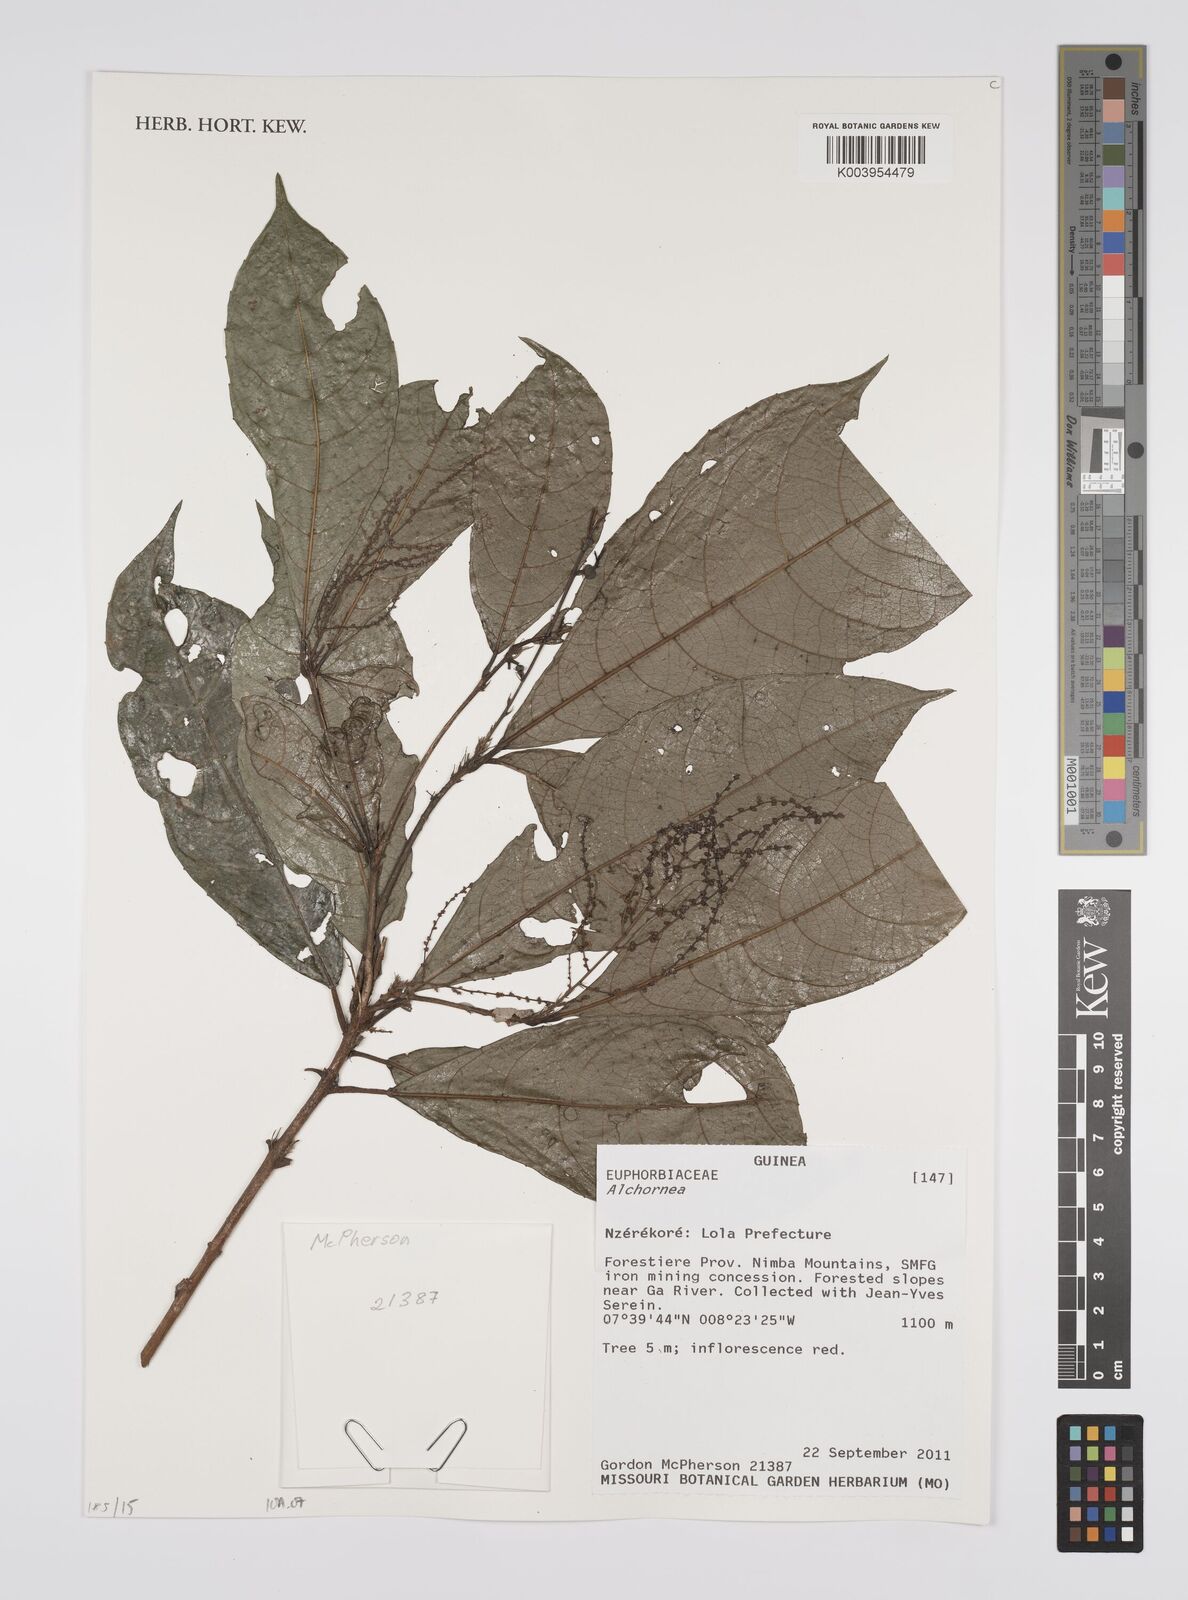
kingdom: Plantae
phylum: Tracheophyta
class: Magnoliopsida
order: Malpighiales
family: Euphorbiaceae
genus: Alchornea
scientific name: Alchornea
